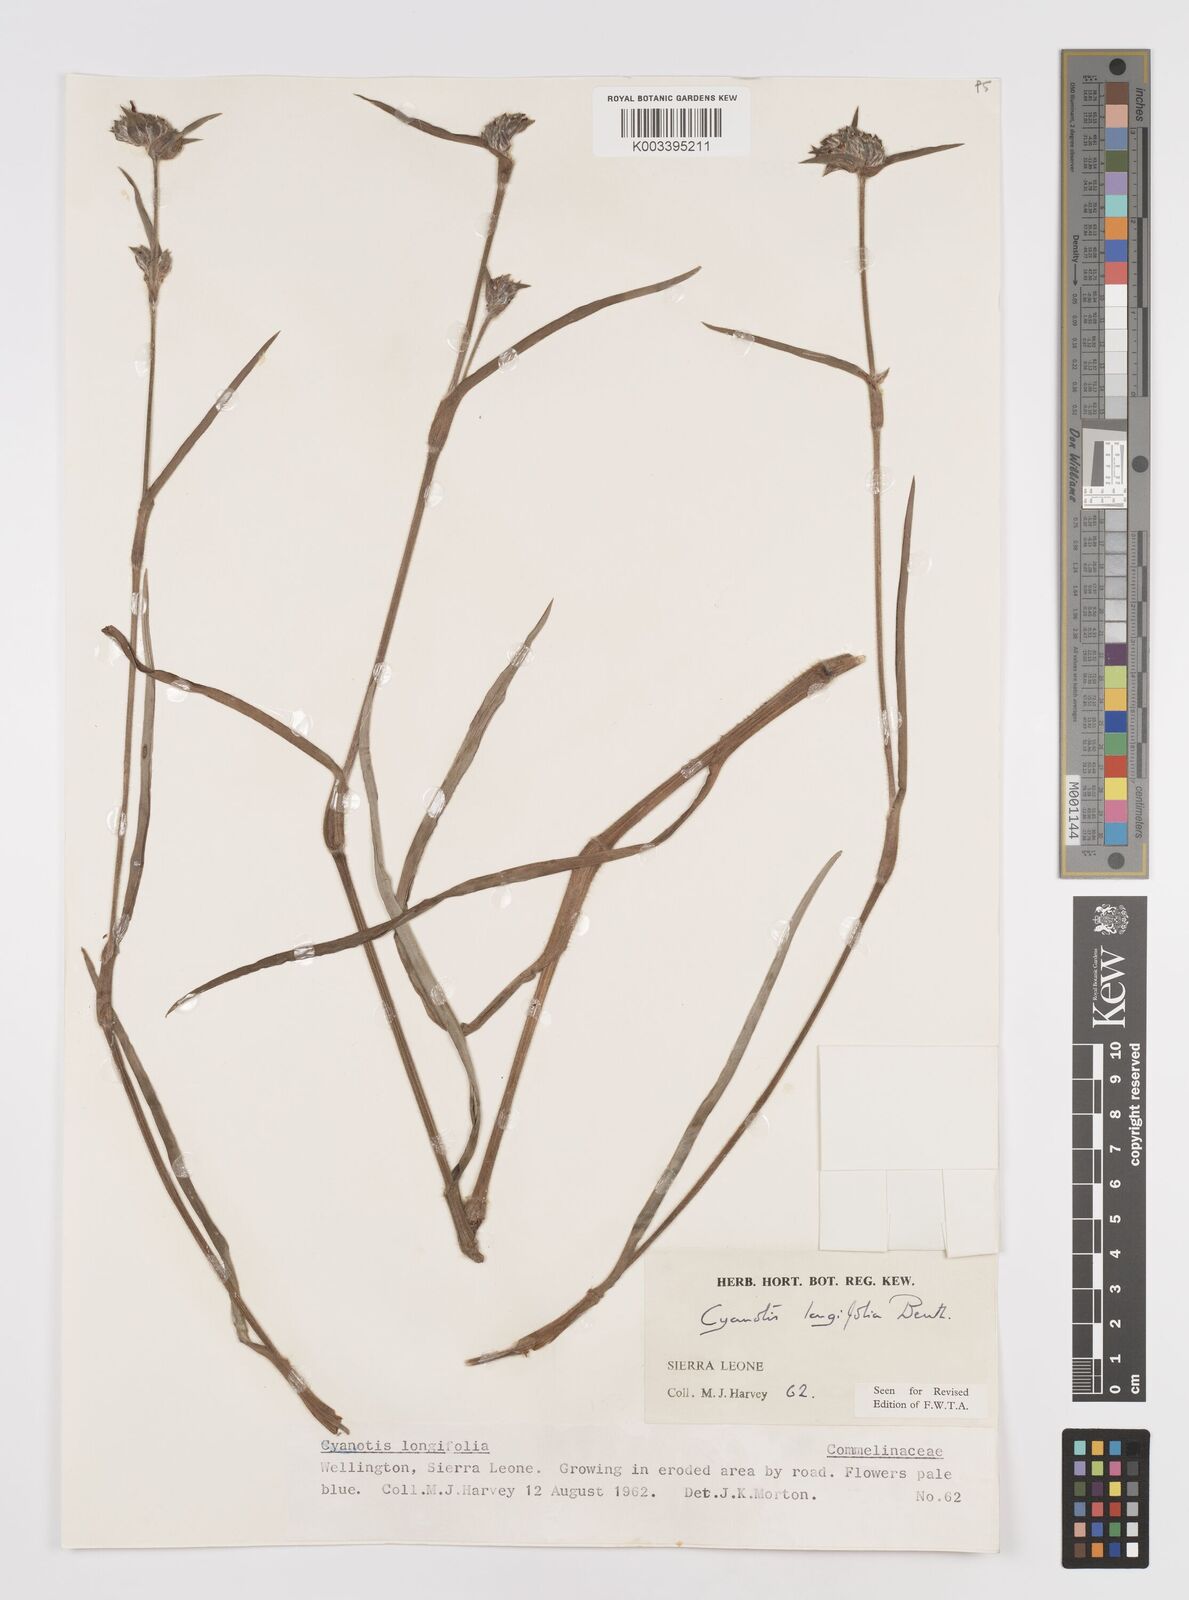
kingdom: Plantae
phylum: Tracheophyta
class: Liliopsida
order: Commelinales
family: Commelinaceae
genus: Cyanotis
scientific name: Cyanotis
